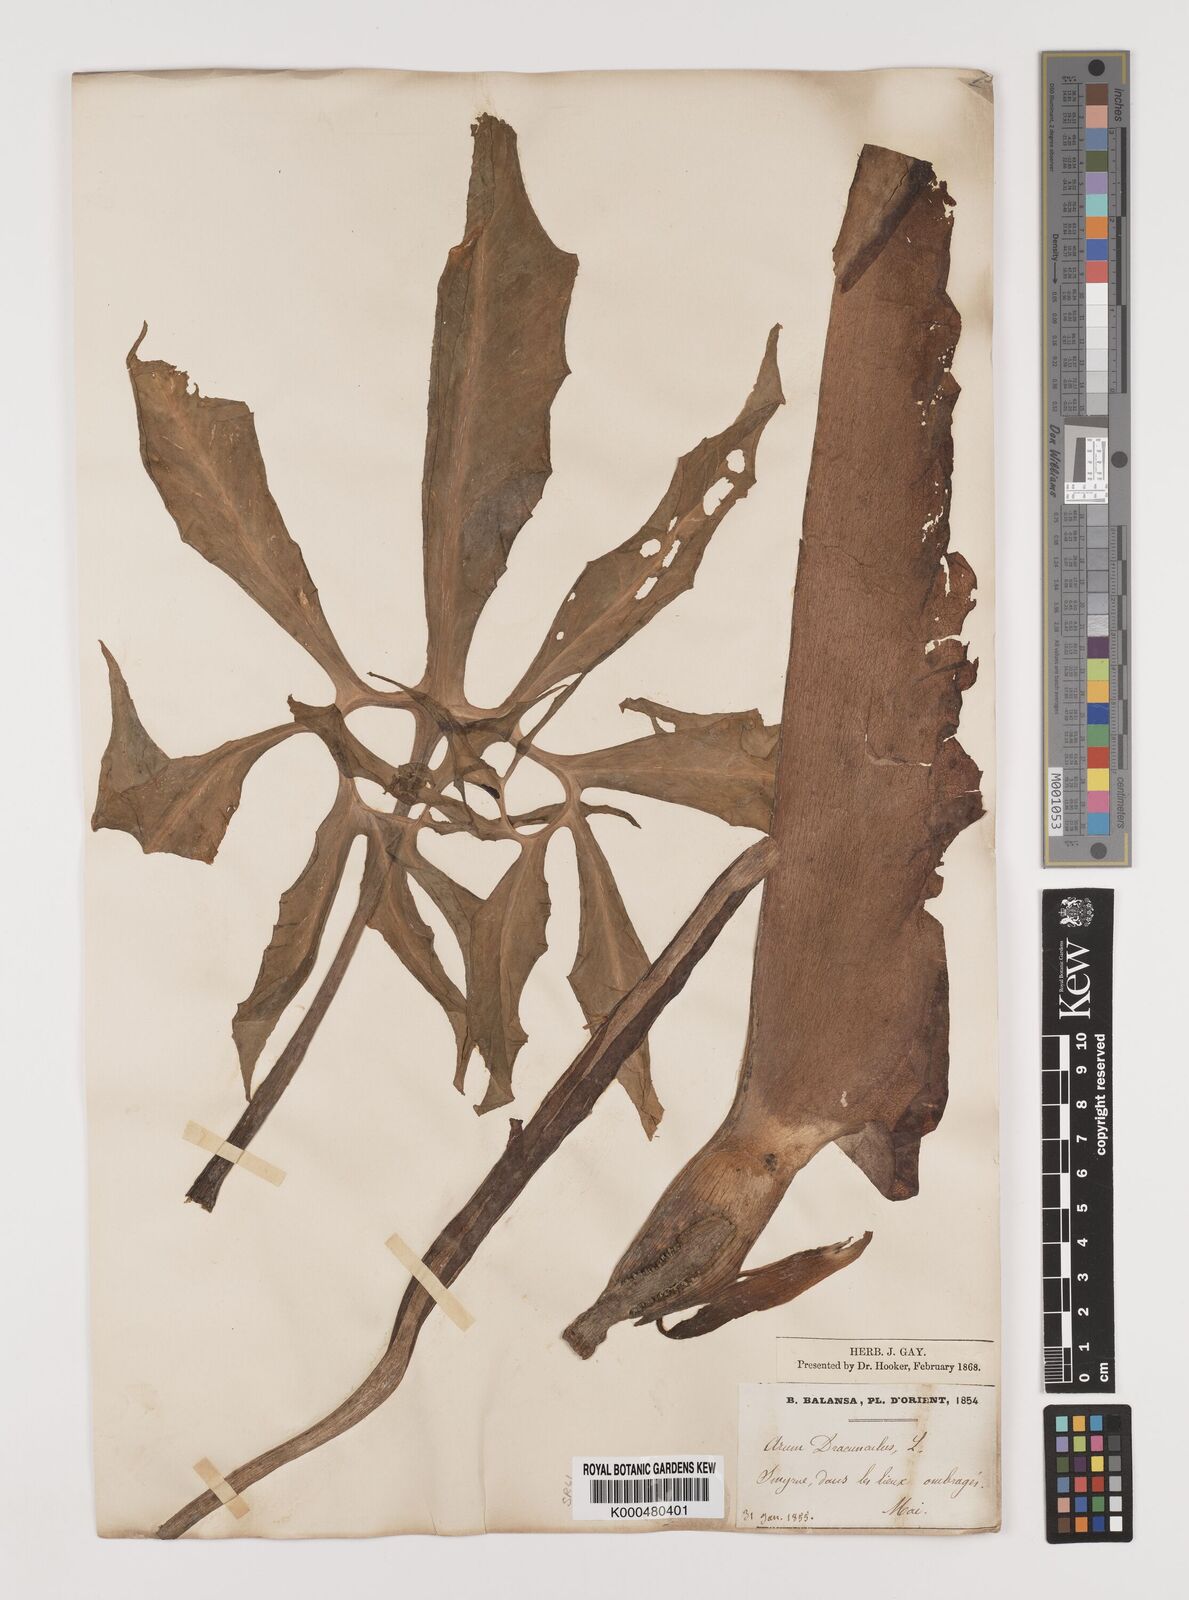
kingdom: Plantae
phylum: Tracheophyta
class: Liliopsida
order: Alismatales
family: Araceae
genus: Arum
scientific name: Arum
